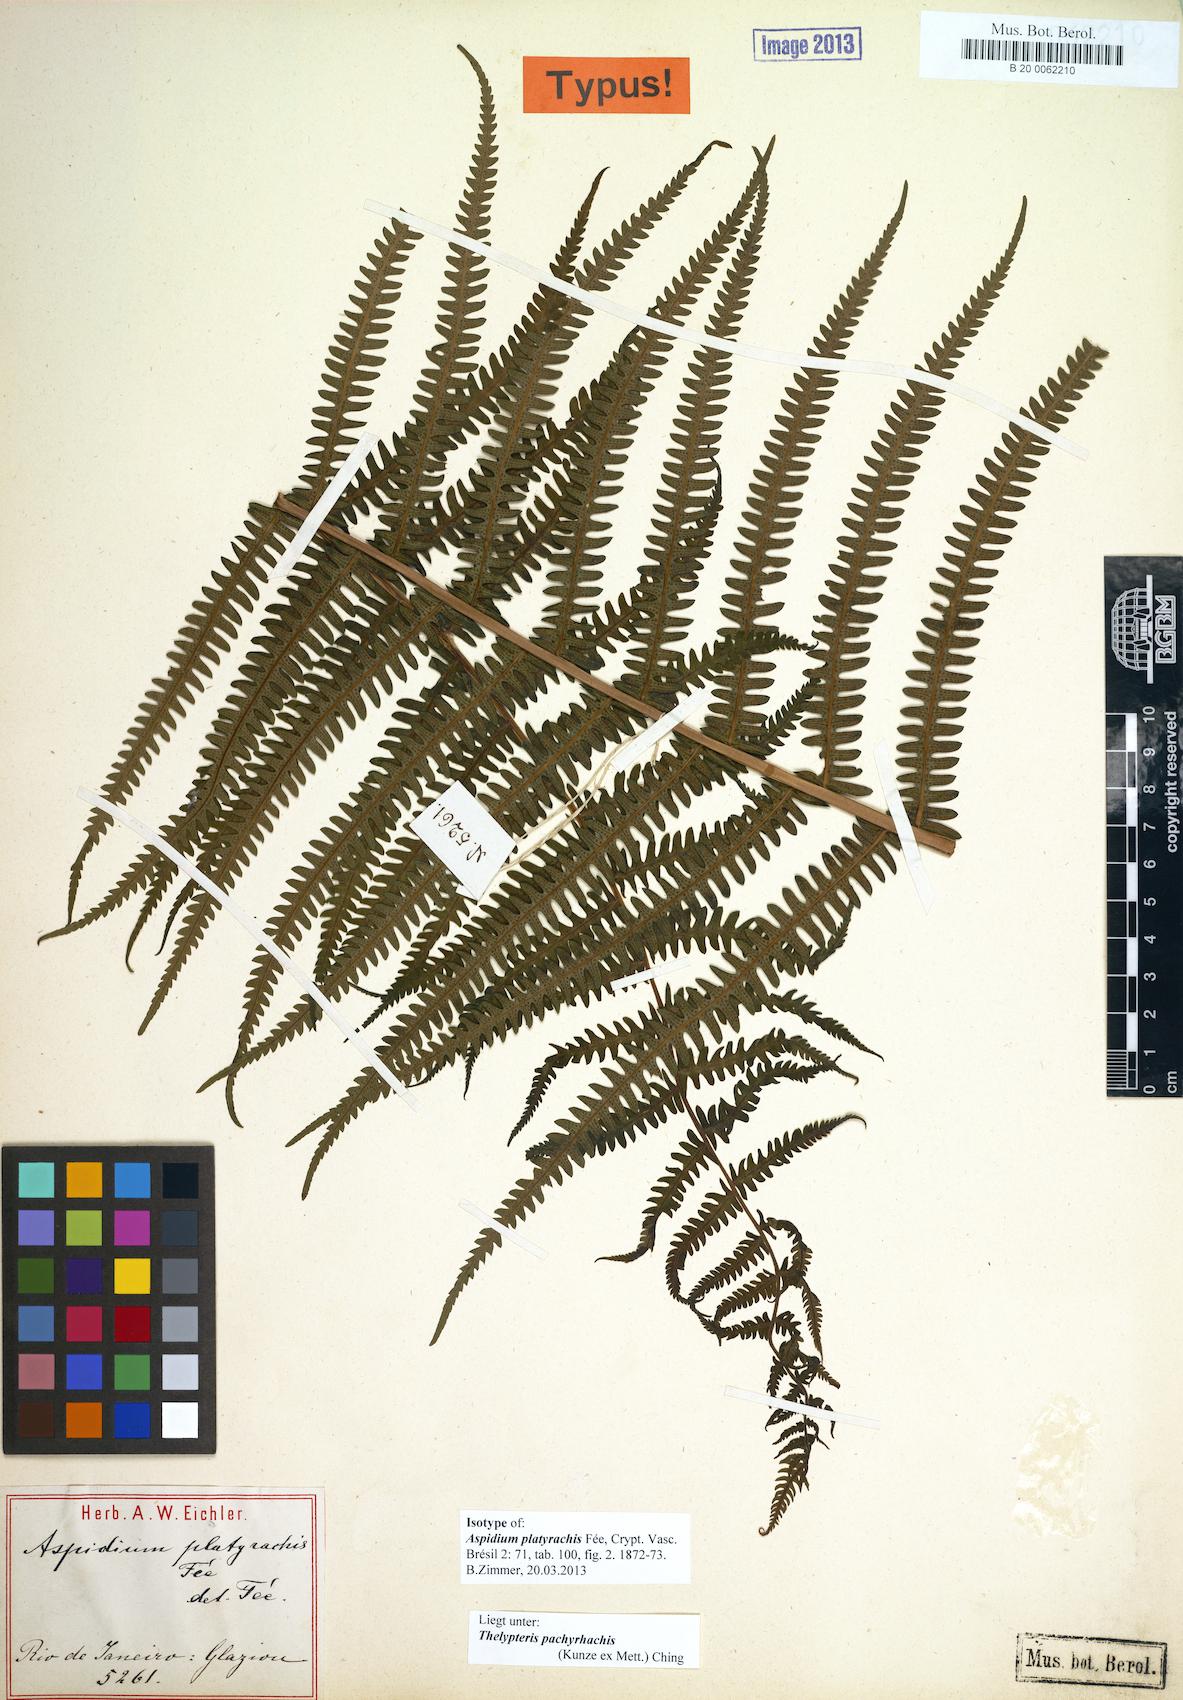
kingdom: Plantae
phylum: Tracheophyta
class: Polypodiopsida
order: Polypodiales
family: Thelypteridaceae
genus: Amauropelta
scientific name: Amauropelta pachyrhachis
